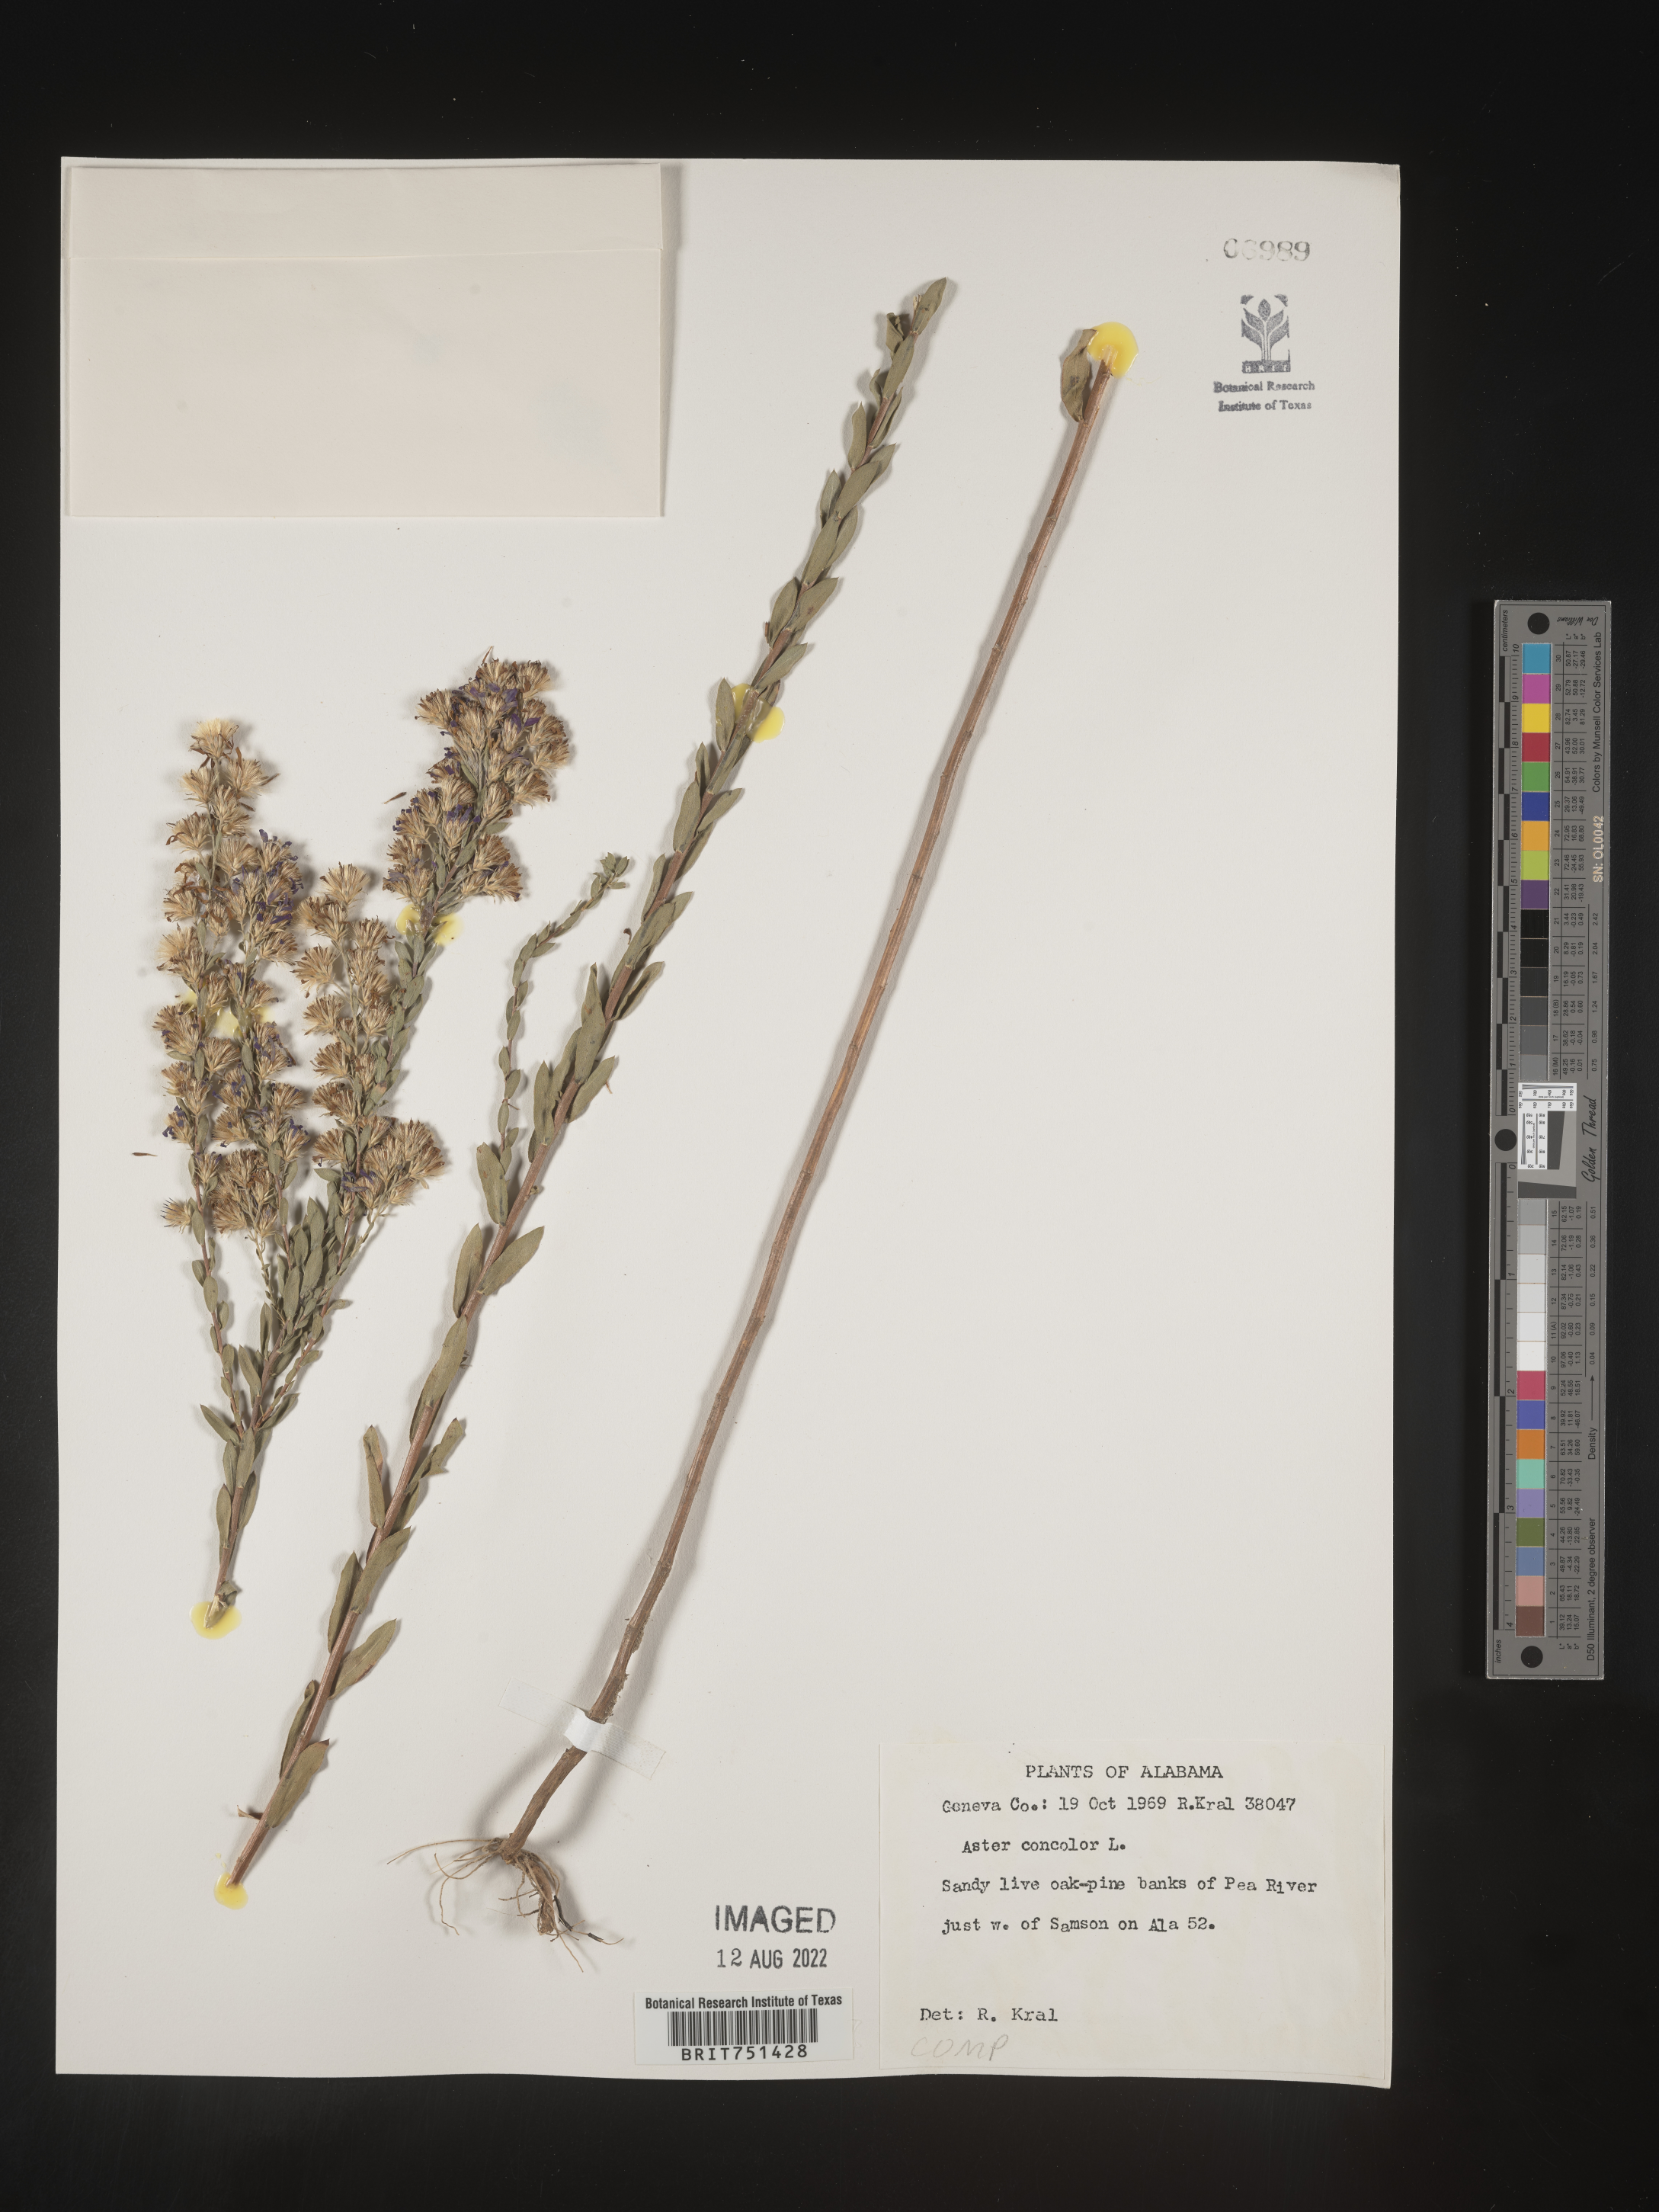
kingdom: Plantae
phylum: Tracheophyta
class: Magnoliopsida
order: Asterales
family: Asteraceae
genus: Symphyotrichum
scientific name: Symphyotrichum concolor
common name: Eastern silver aster
